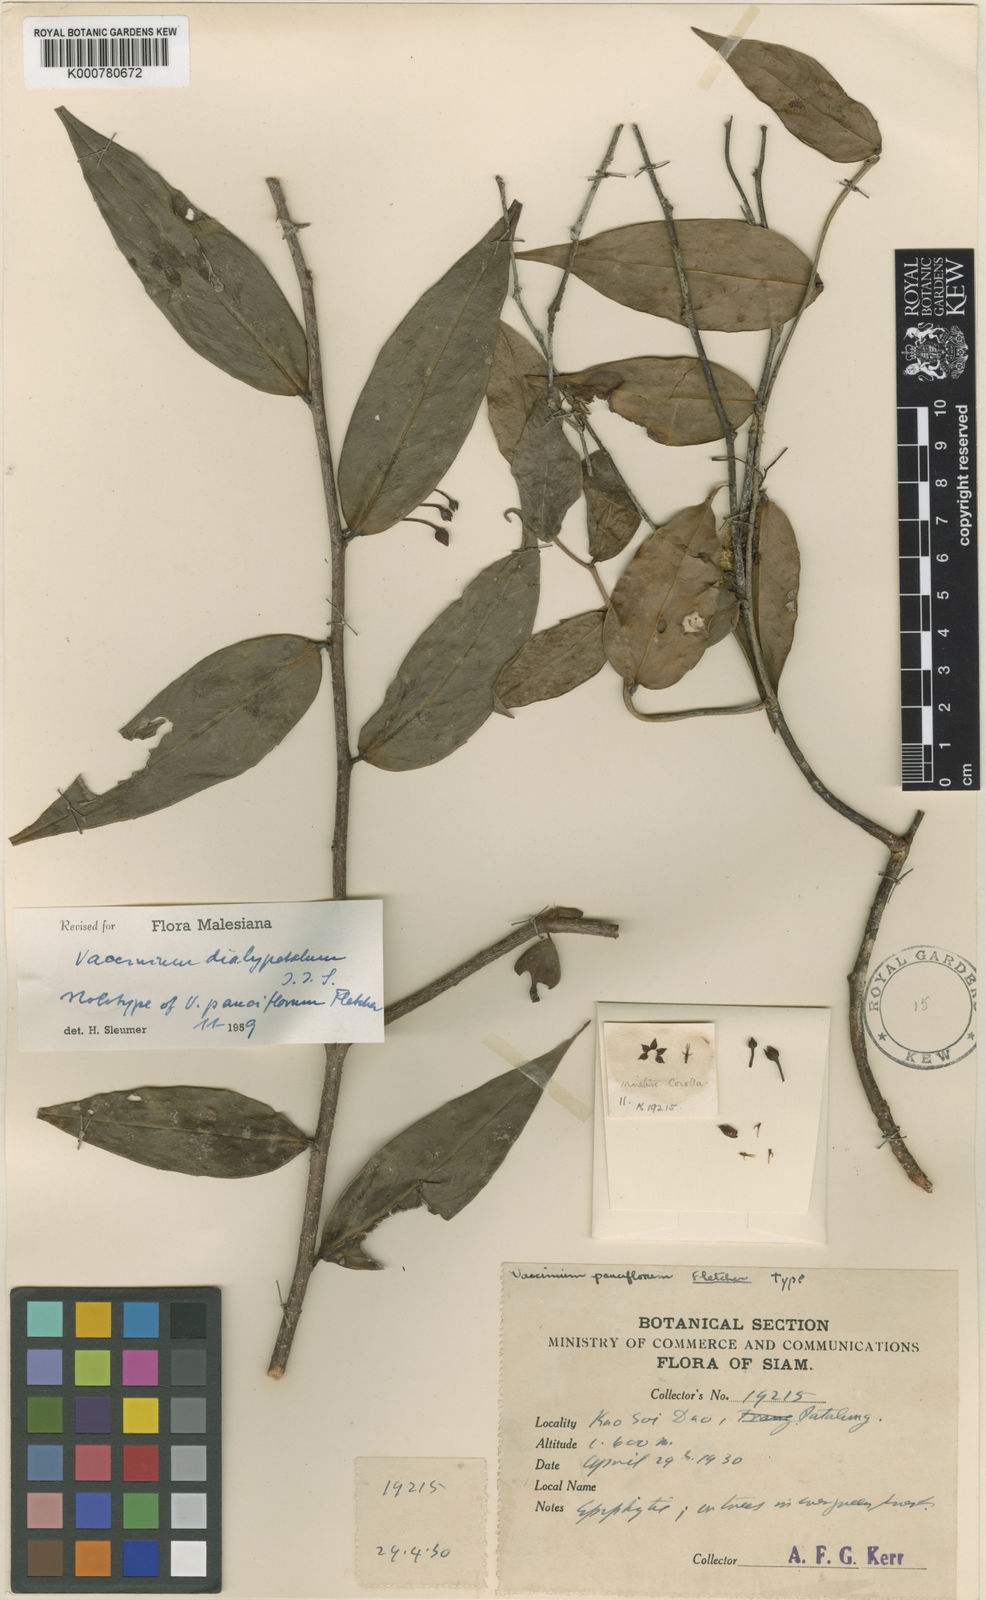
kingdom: Plantae
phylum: Tracheophyta
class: Magnoliopsida
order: Ericales
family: Ericaceae
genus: Vaccinium
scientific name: Vaccinium dialypetalum
